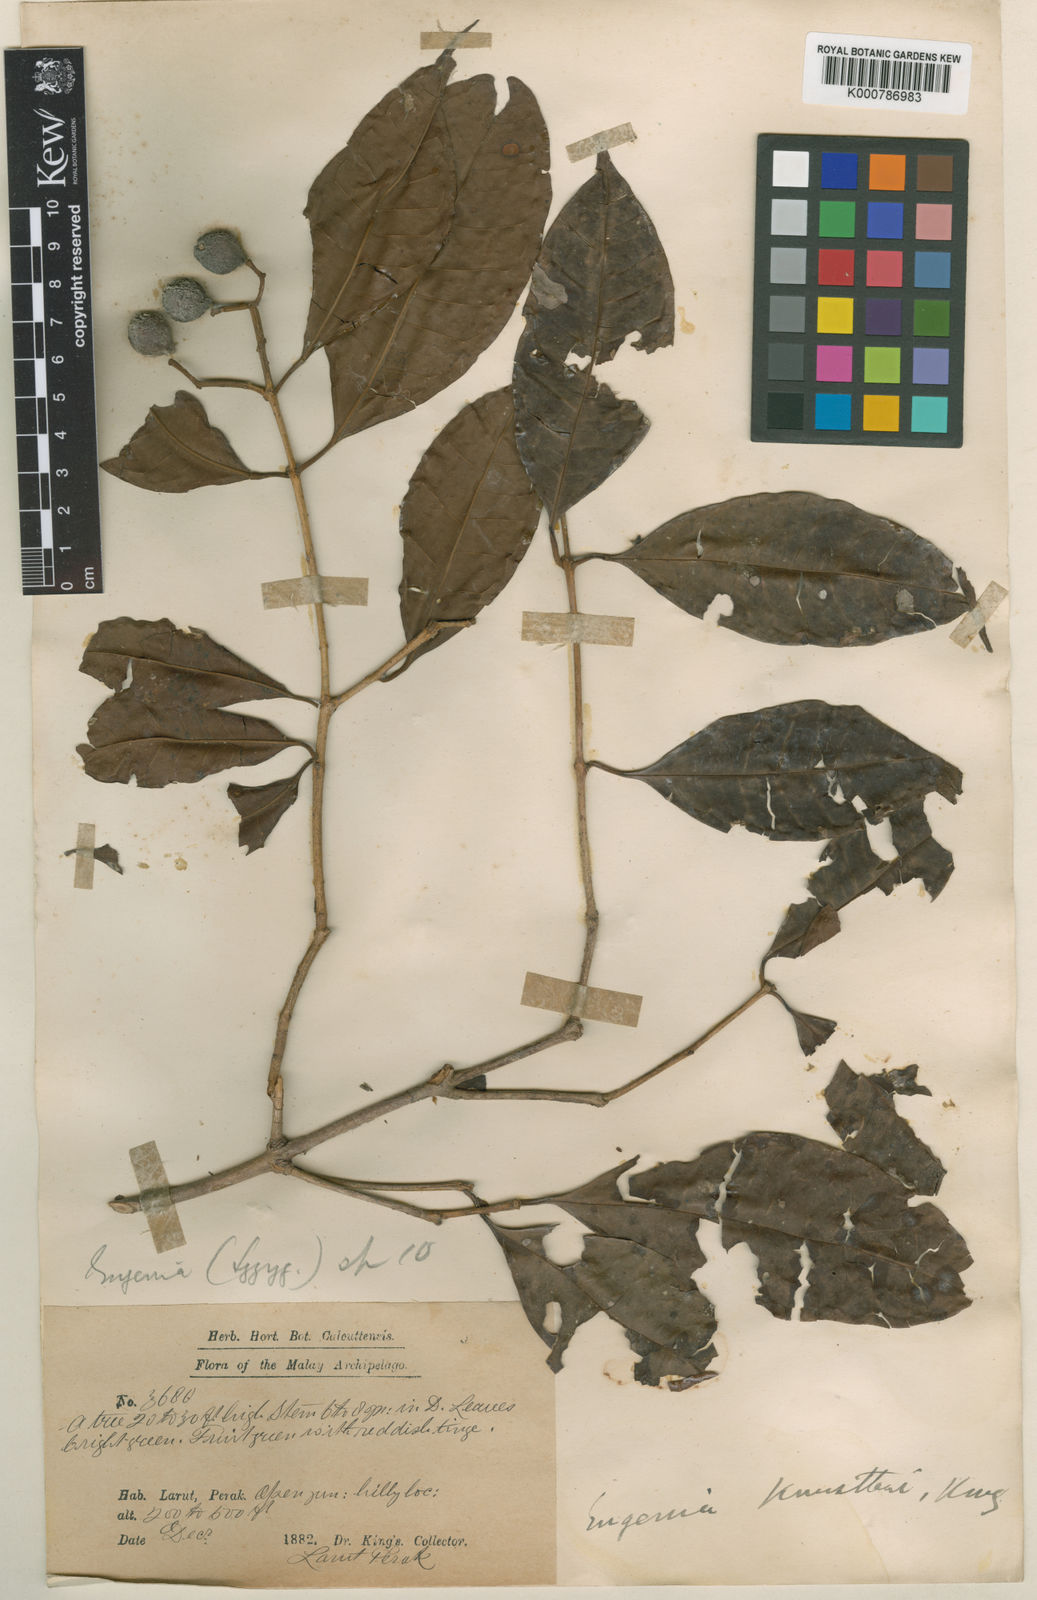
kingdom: Plantae
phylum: Tracheophyta
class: Magnoliopsida
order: Myrtales
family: Myrtaceae
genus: Syzygium
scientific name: Syzygium kunstleri
